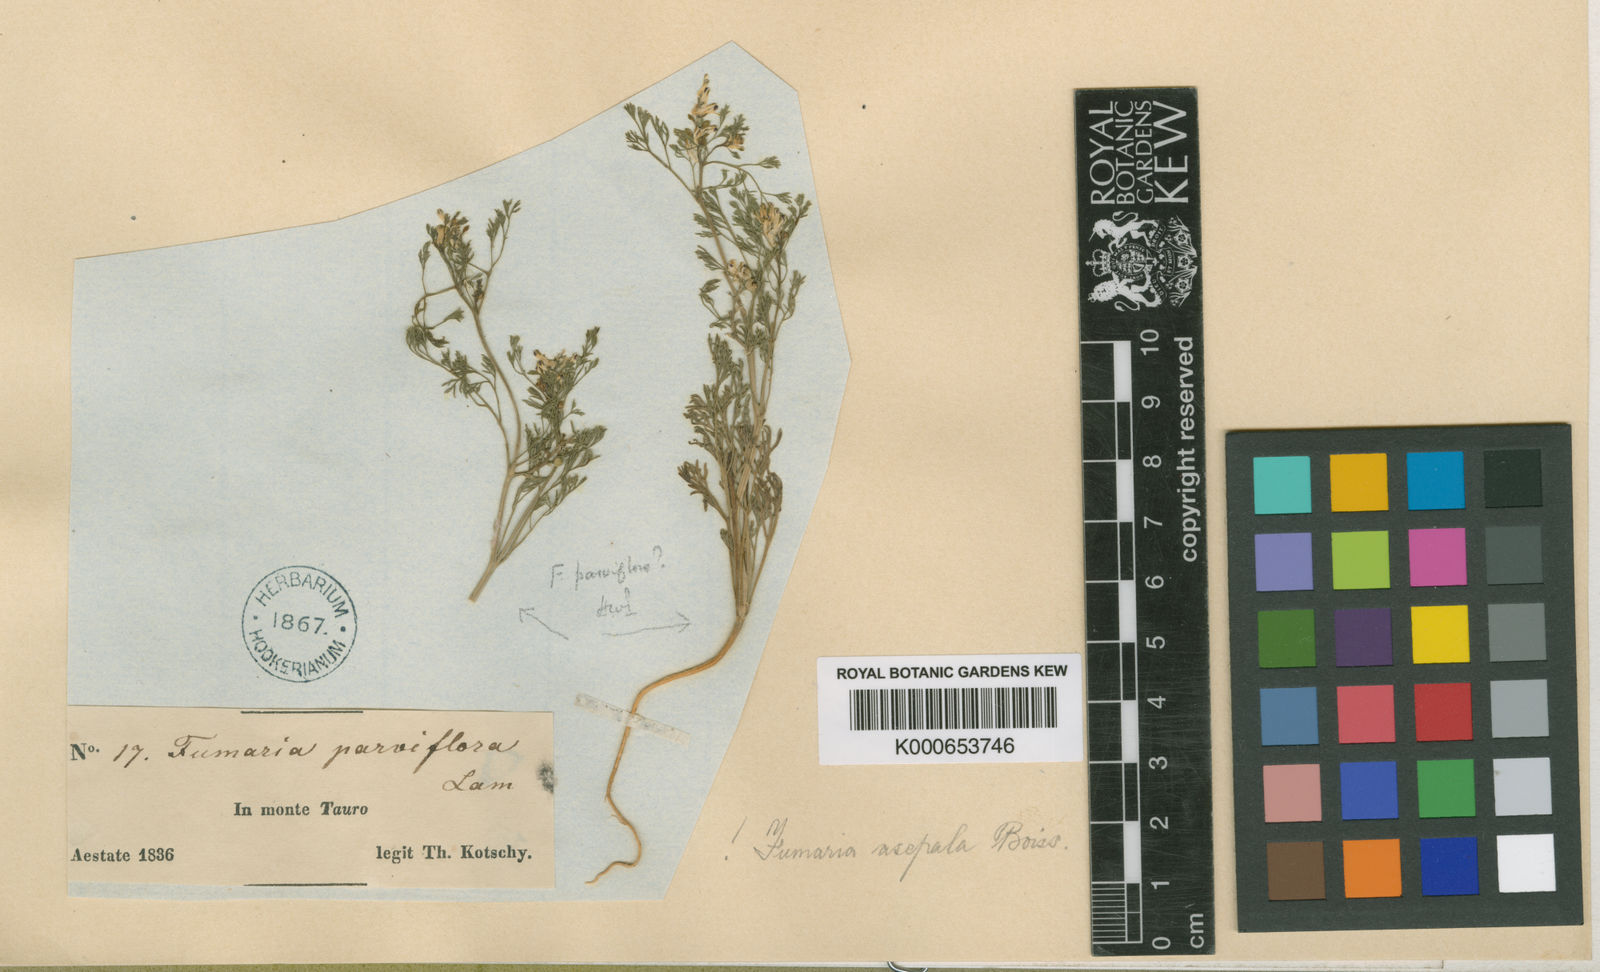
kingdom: Plantae
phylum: Tracheophyta
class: Magnoliopsida
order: Ranunculales
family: Papaveraceae
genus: Fumaria
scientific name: Fumaria asepala
